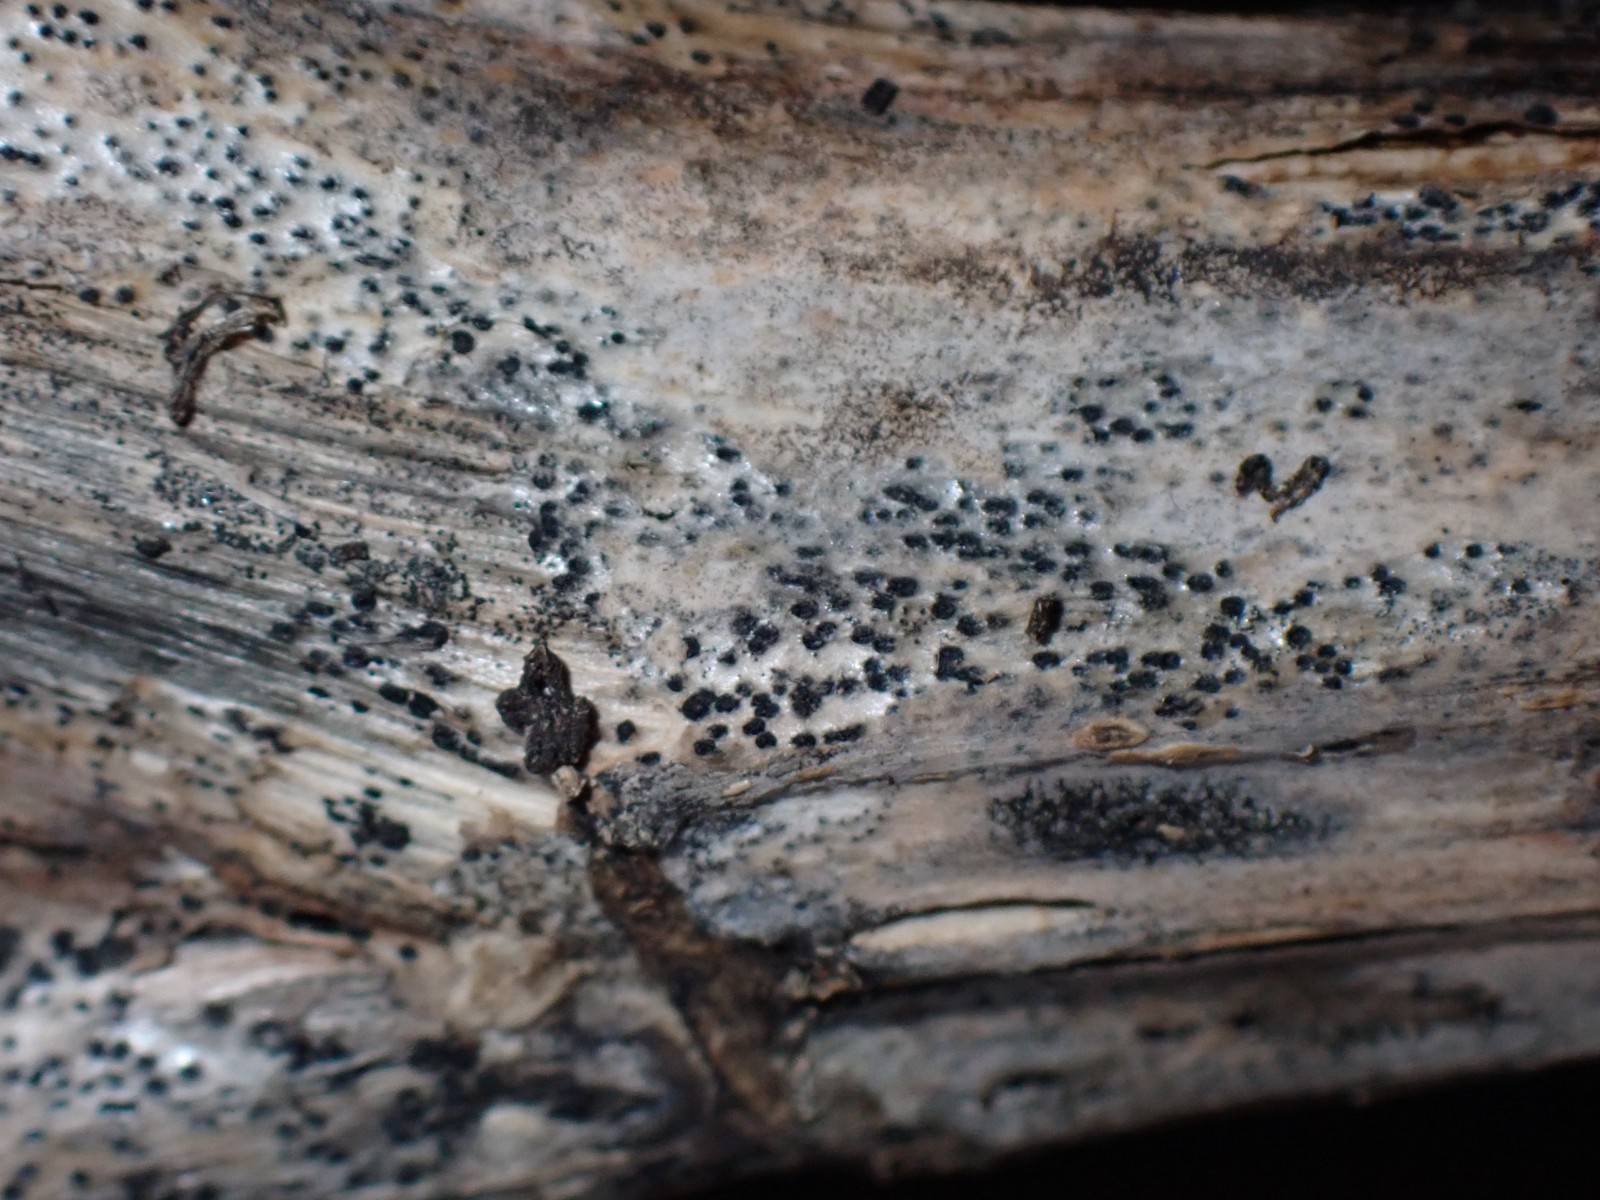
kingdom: Fungi
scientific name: Fungi
